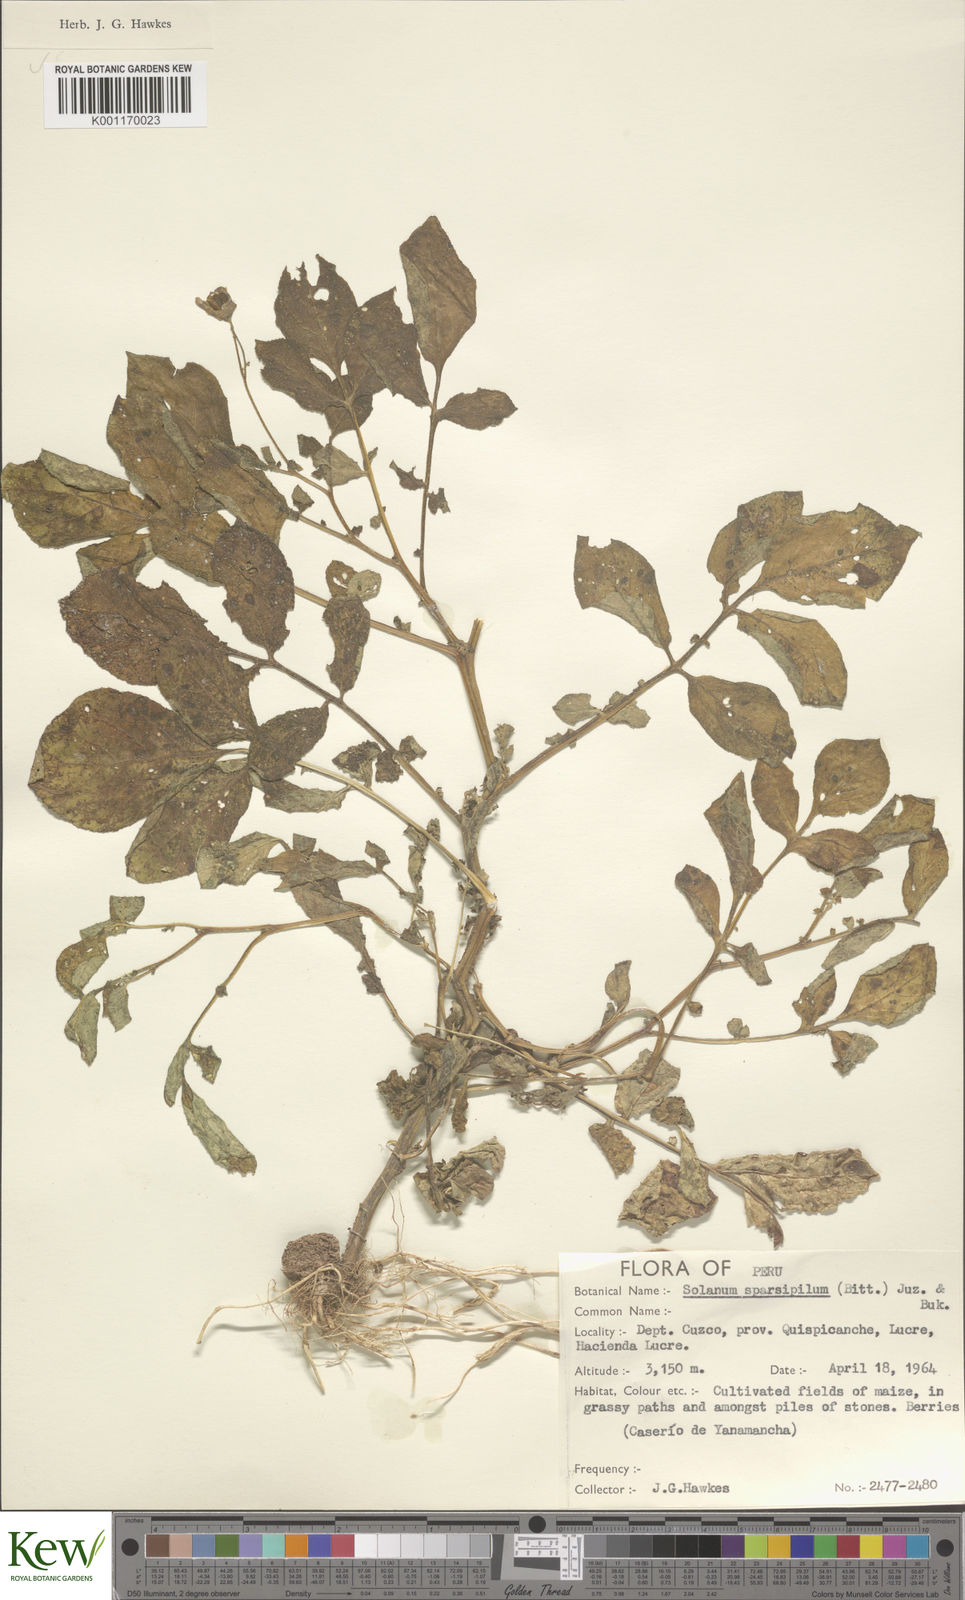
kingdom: Plantae
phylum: Tracheophyta
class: Magnoliopsida
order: Solanales
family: Solanaceae
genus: Solanum
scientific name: Solanum brevicaule
